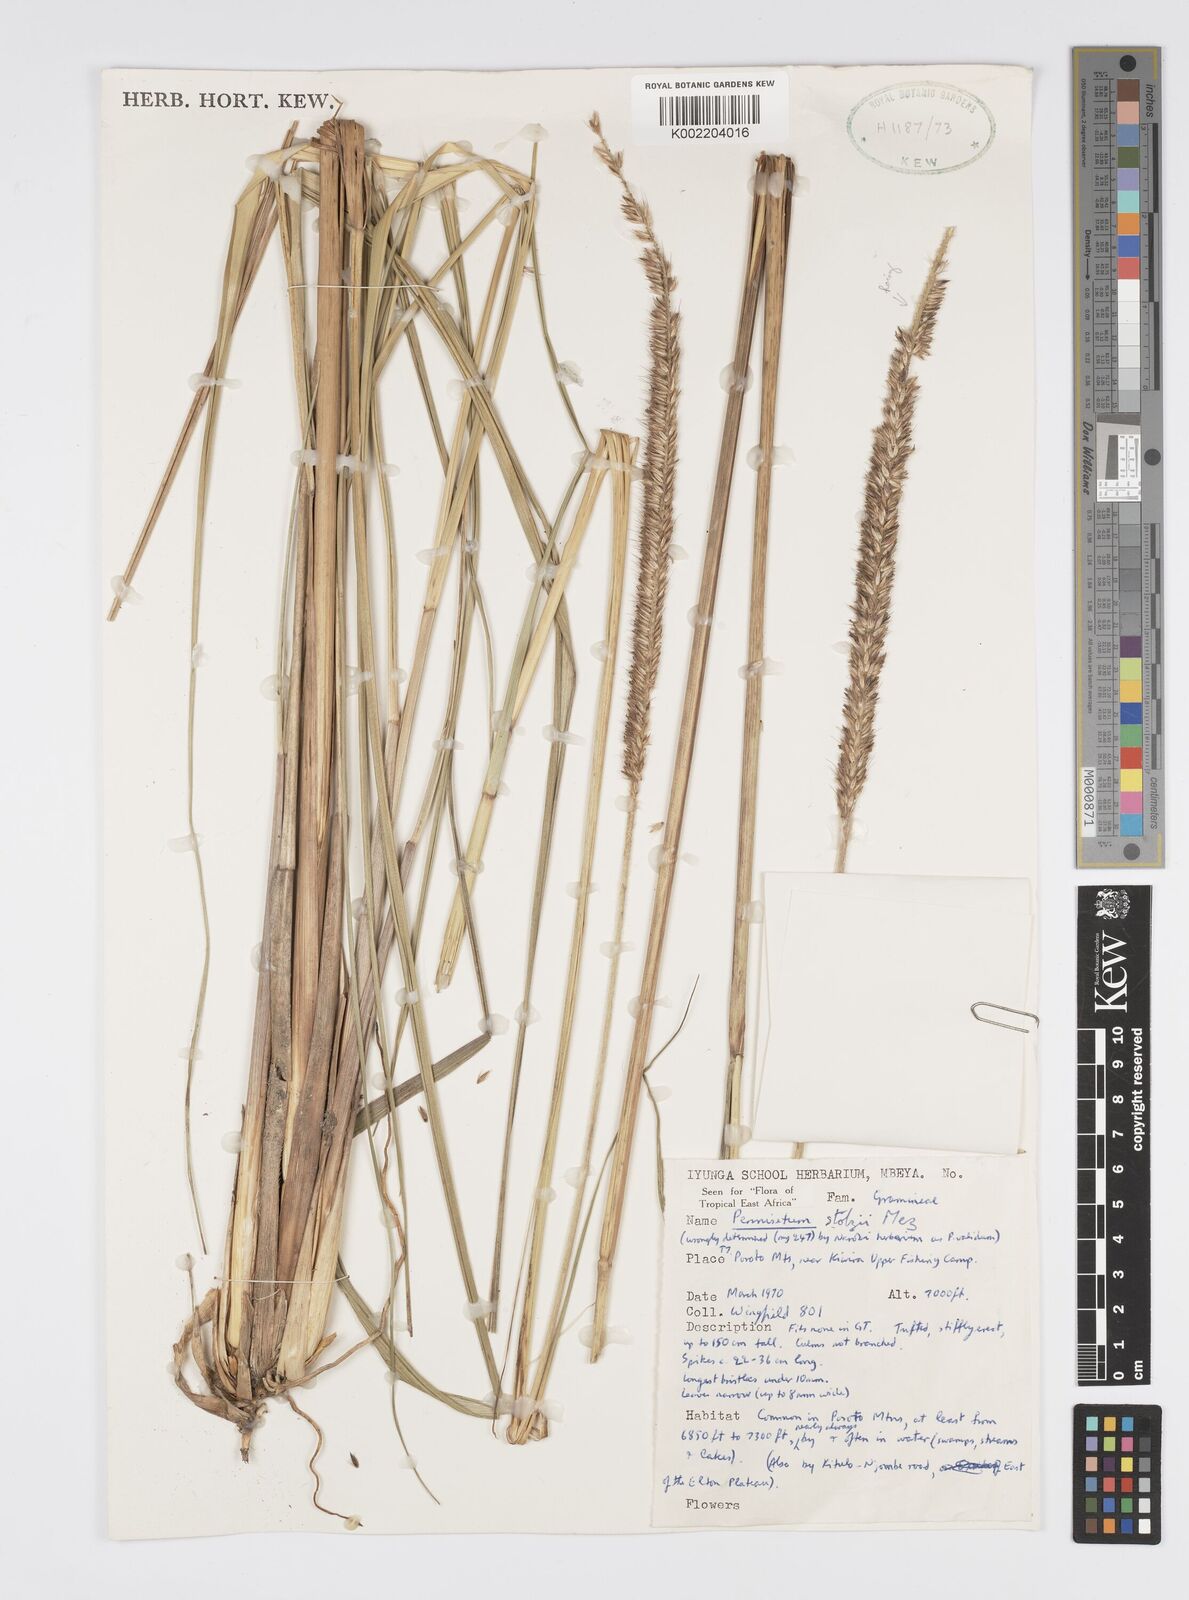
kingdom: Plantae
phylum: Tracheophyta
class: Liliopsida
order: Poales
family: Poaceae
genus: Cenchrus
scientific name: Cenchrus caudatus
